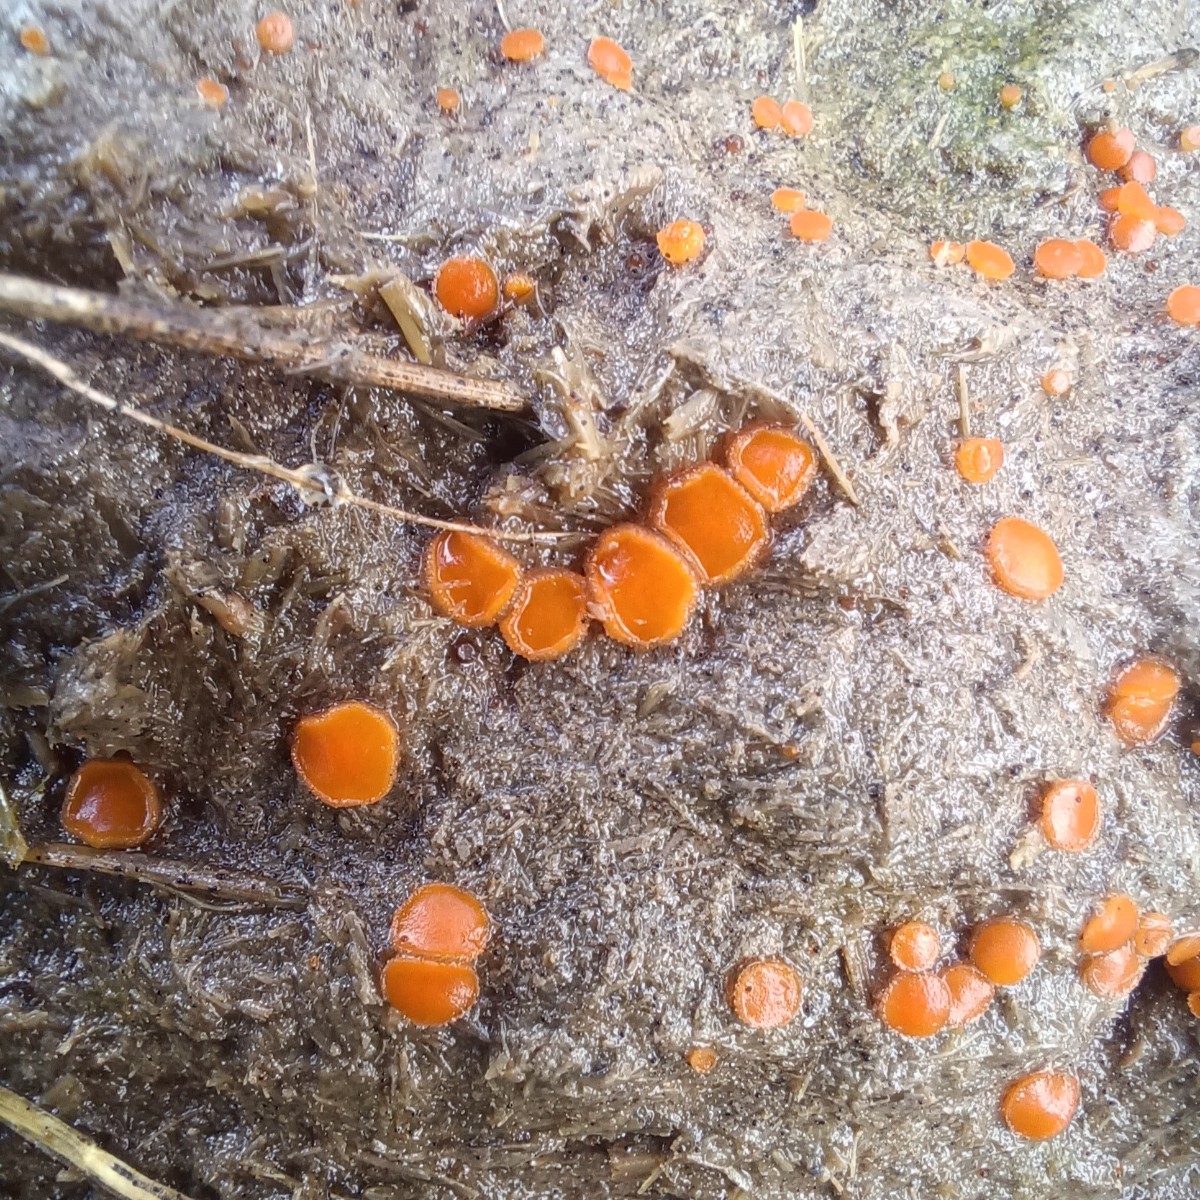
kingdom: Fungi
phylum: Ascomycota
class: Pezizomycetes
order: Pezizales
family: Pyronemataceae
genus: Cheilymenia
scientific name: Cheilymenia granulata
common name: møgbæger
